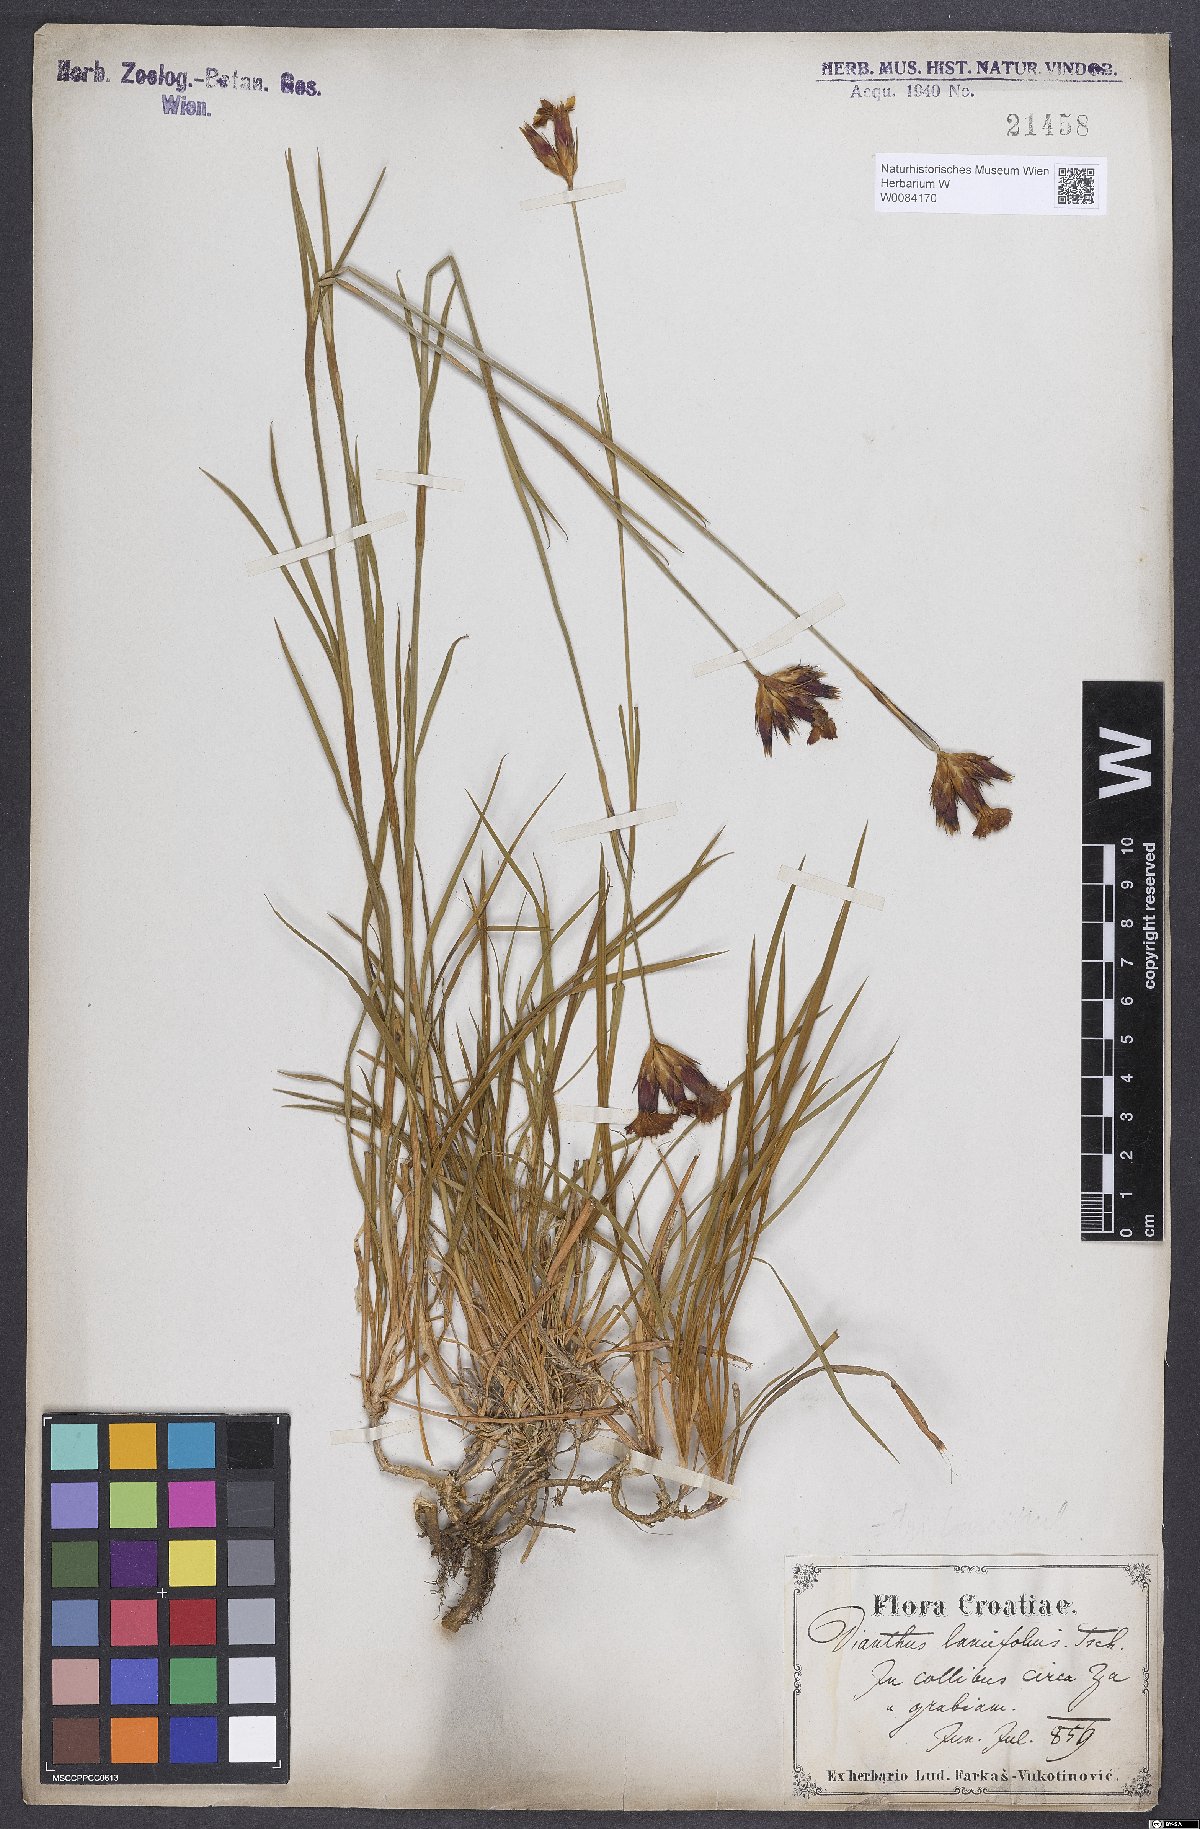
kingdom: Plantae
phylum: Tracheophyta
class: Magnoliopsida
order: Caryophyllales
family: Caryophyllaceae
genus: Dianthus
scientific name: Dianthus trifasciculatus
